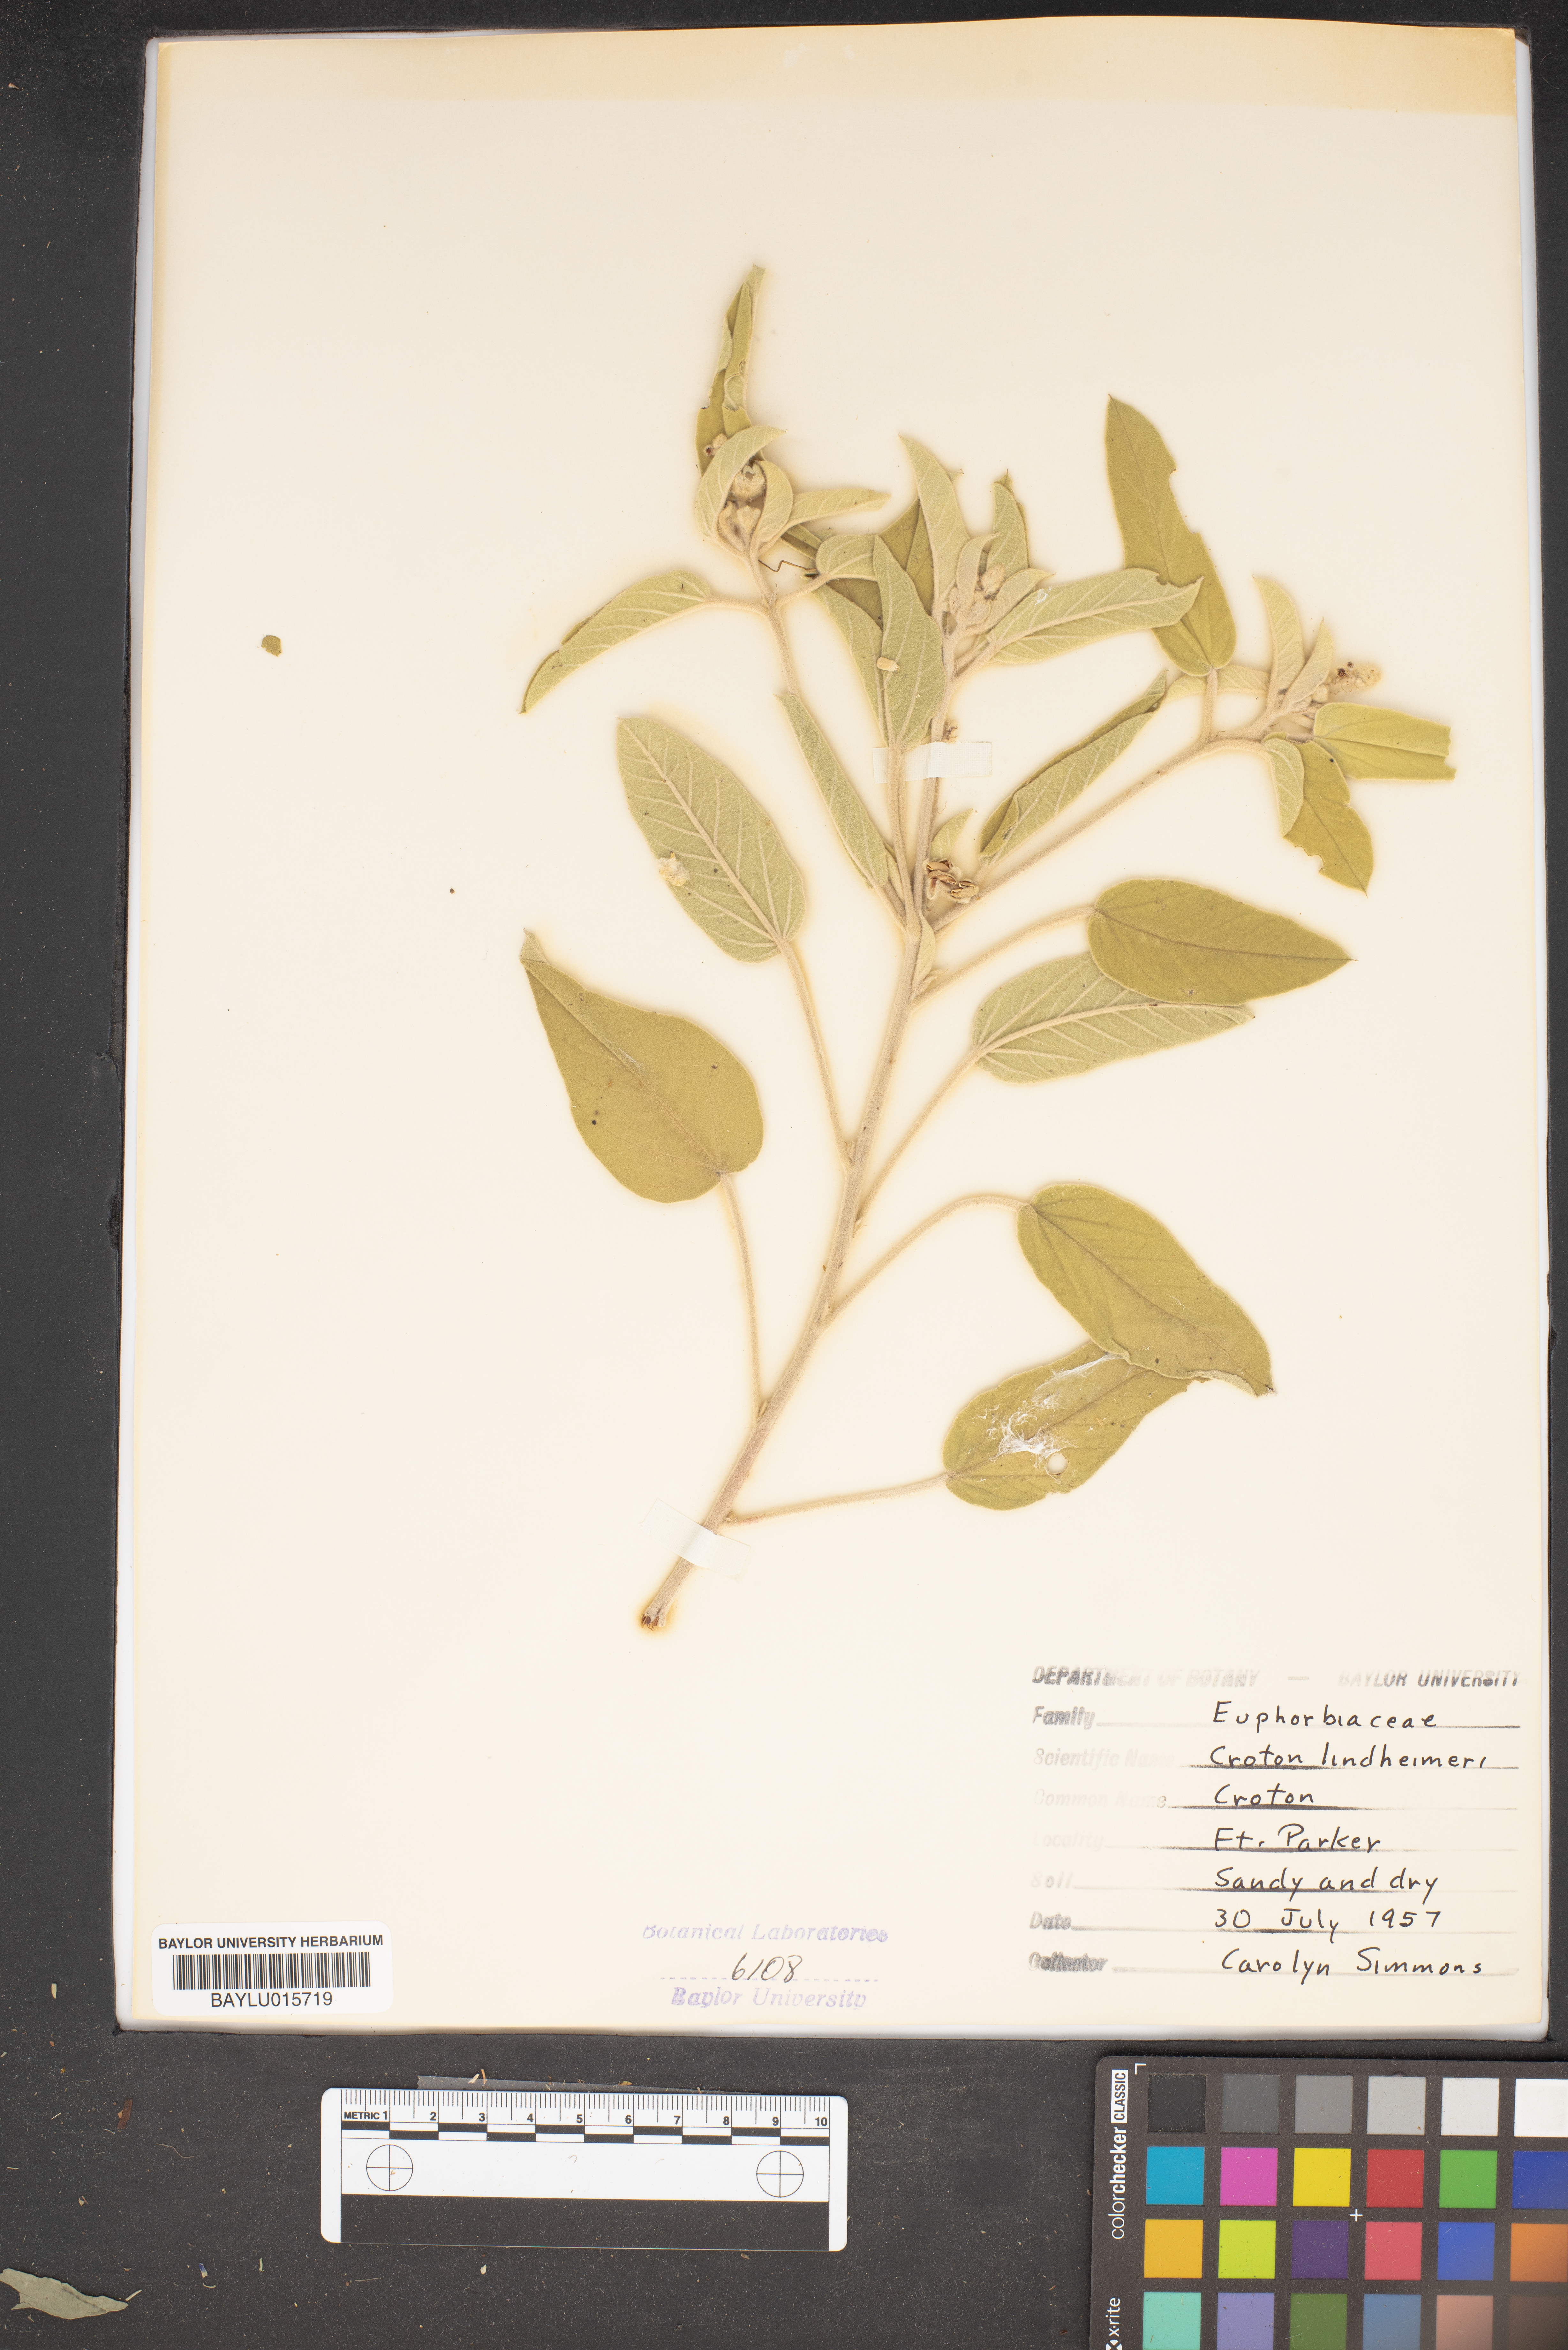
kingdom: Plantae
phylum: Tracheophyta
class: Magnoliopsida
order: Malpighiales
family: Euphorbiaceae
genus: Croton
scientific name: Croton lindheimeri
